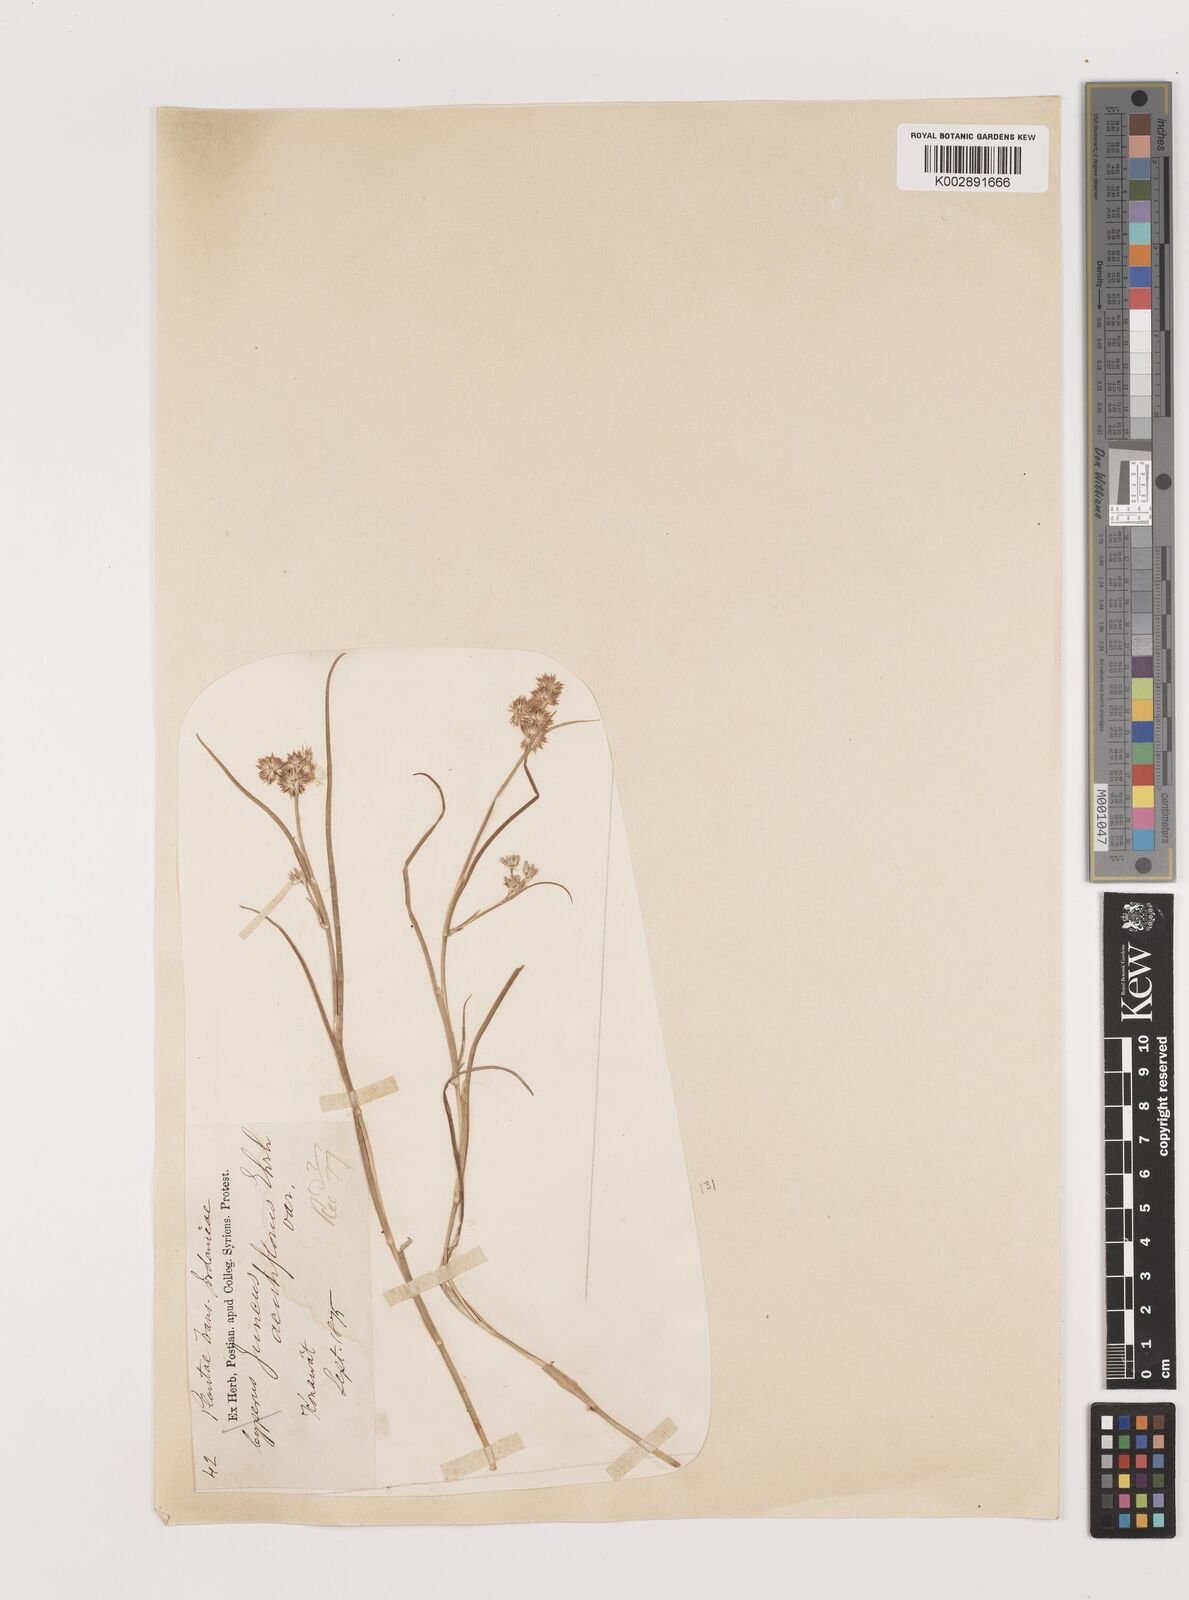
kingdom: Plantae
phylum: Tracheophyta
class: Liliopsida
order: Poales
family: Juncaceae
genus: Juncus
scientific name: Juncus acutiflorus
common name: Sharp-flowered rush
